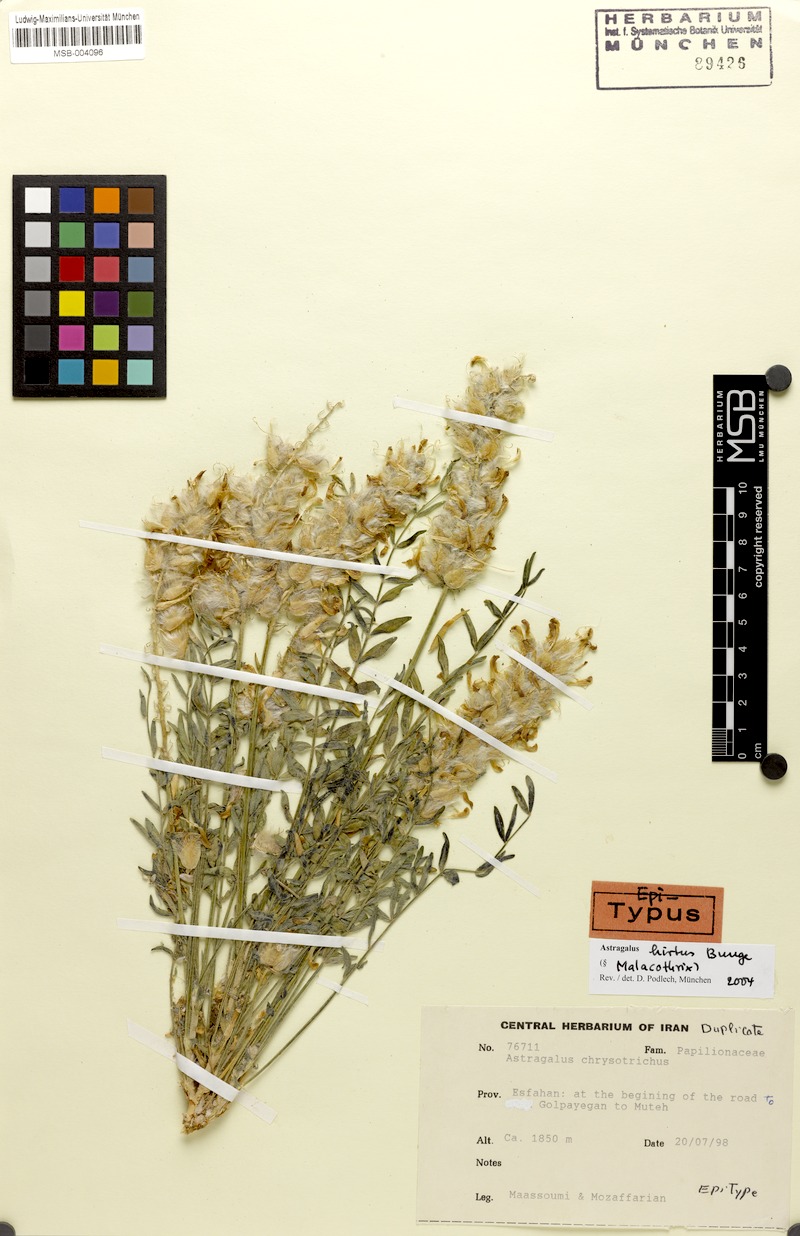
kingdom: Plantae
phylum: Tracheophyta
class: Magnoliopsida
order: Fabales
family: Fabaceae
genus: Astragalus
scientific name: Astragalus hirtus
